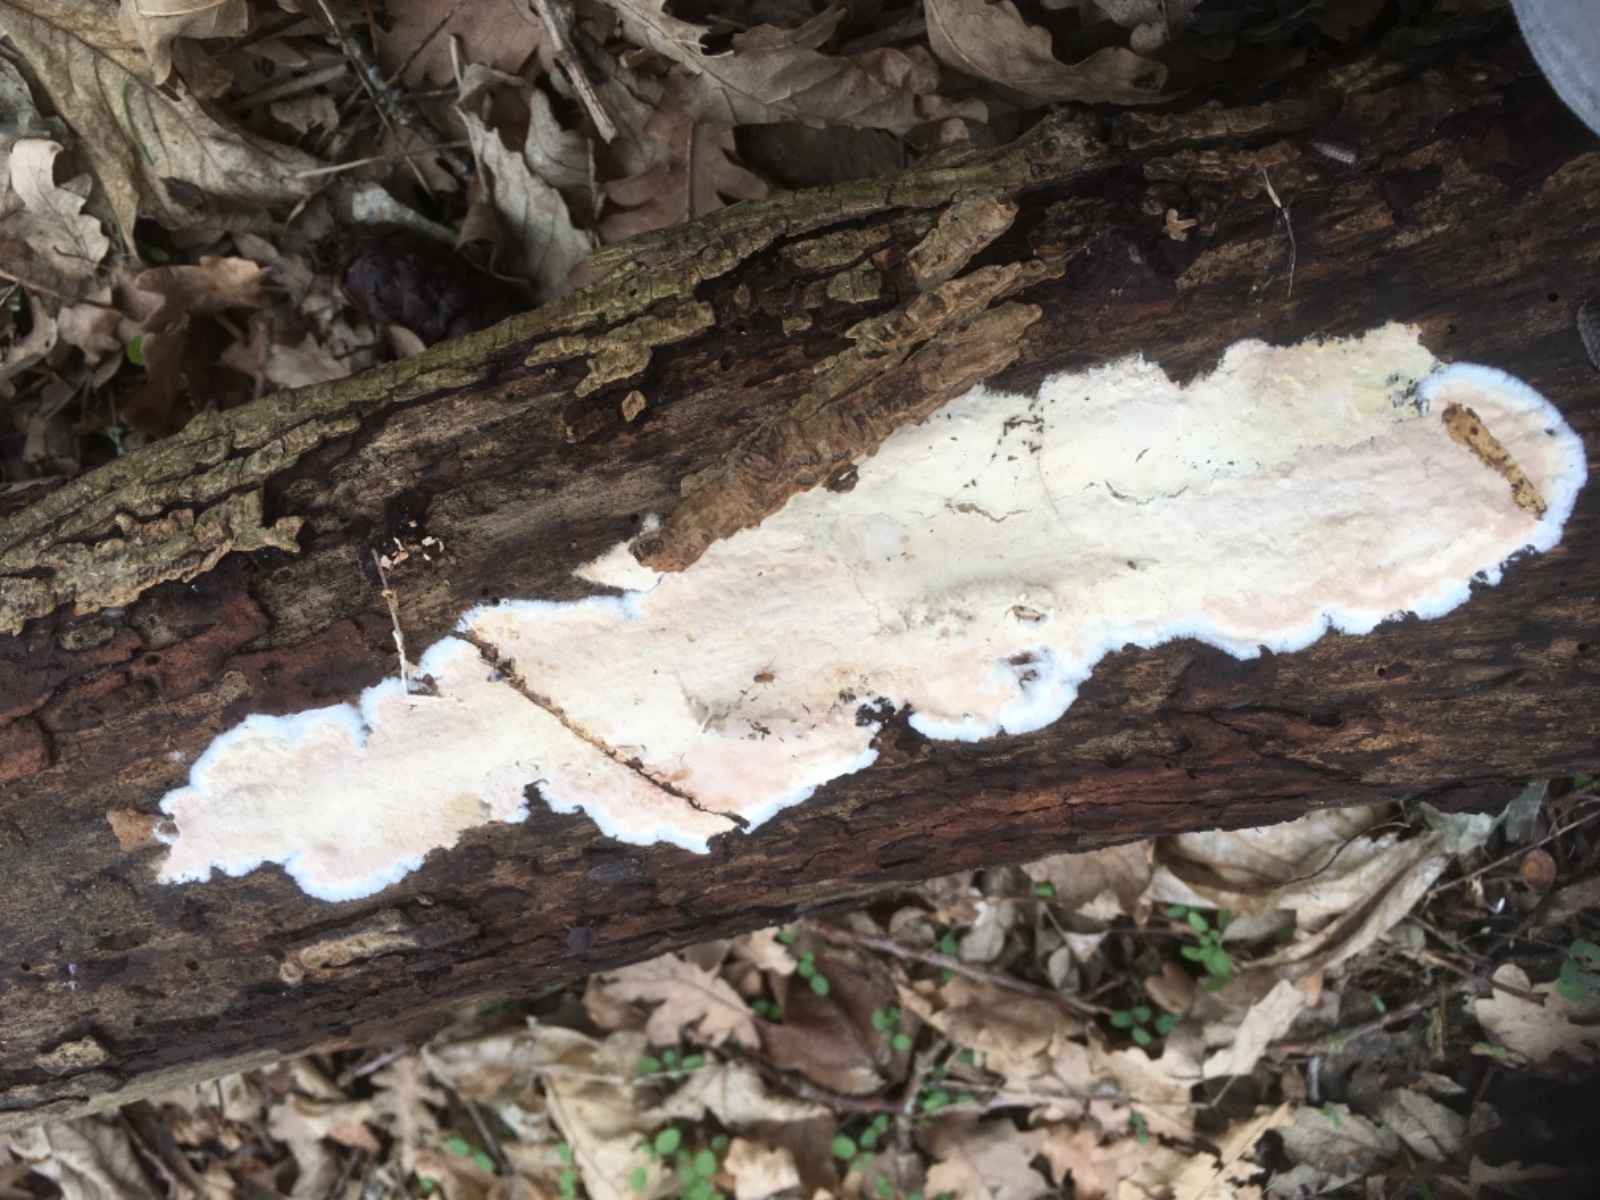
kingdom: Fungi
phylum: Basidiomycota
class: Agaricomycetes
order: Agaricales
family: Cyphellaceae
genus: Granulobasidium
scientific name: Granulobasidium vellereum
